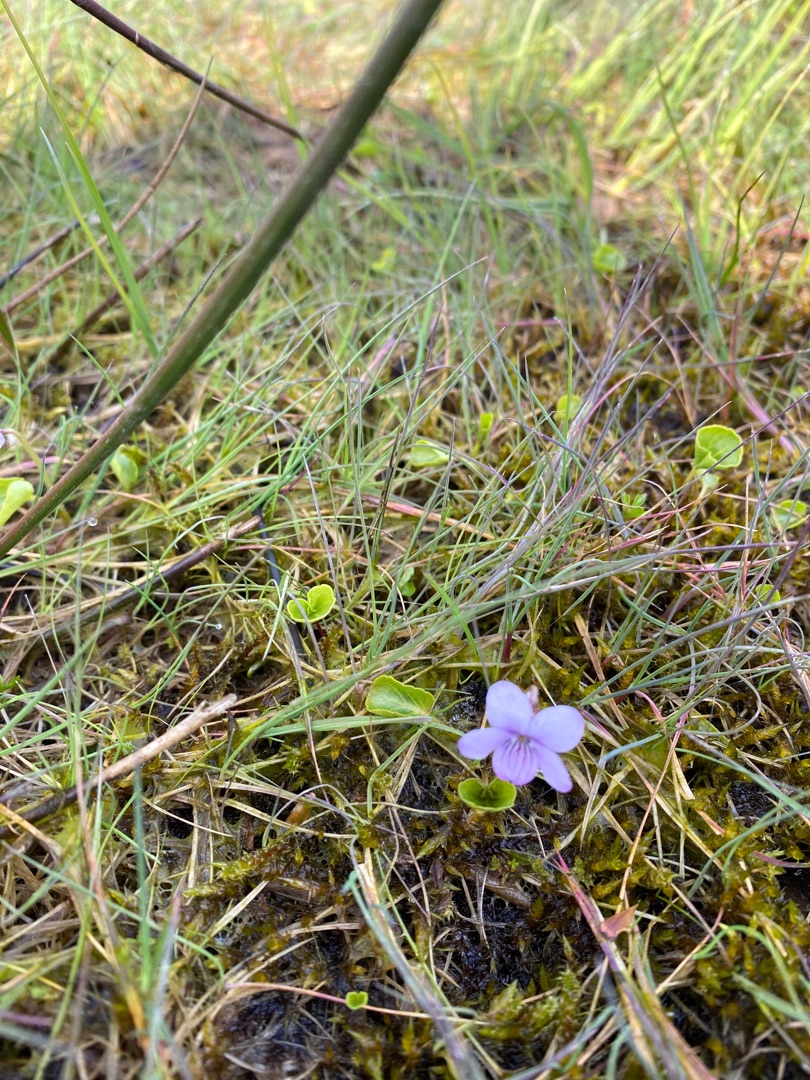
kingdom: Plantae
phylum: Tracheophyta
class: Magnoliopsida
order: Malpighiales
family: Violaceae
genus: Viola
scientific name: Viola palustris
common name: Eng-viol
